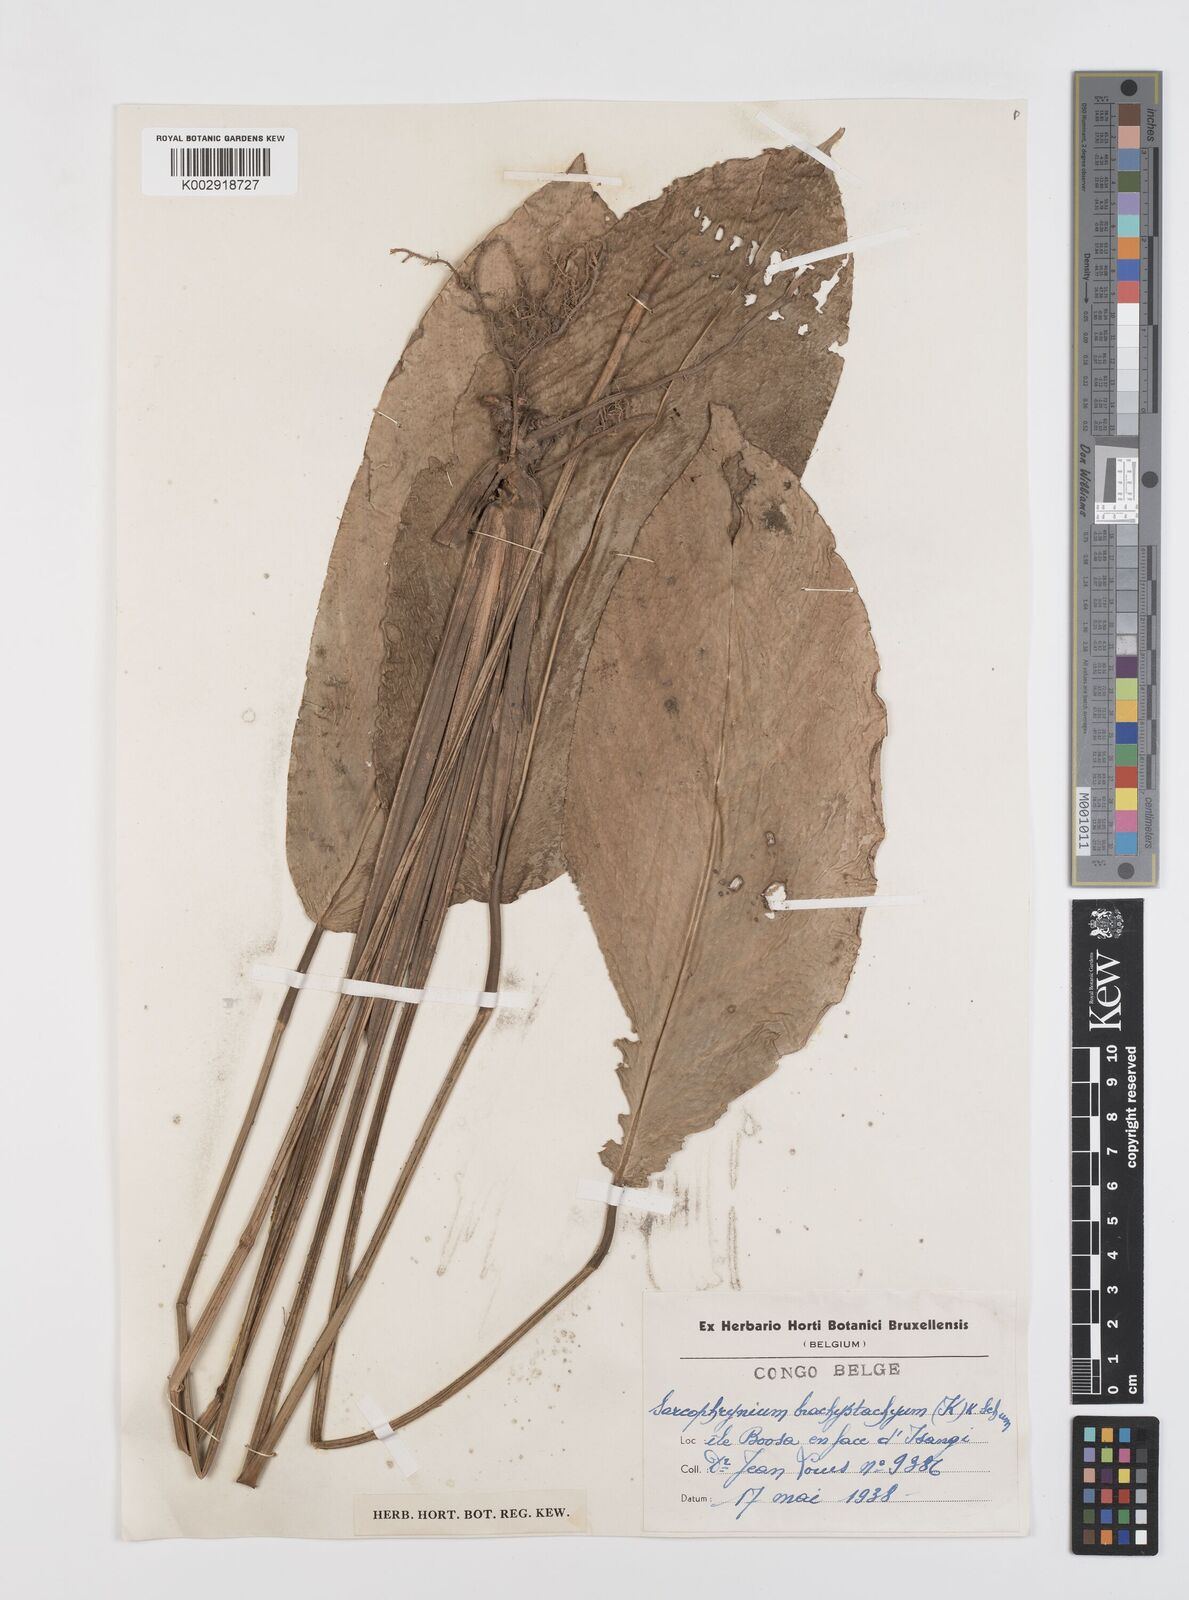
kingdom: Plantae
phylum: Tracheophyta
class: Liliopsida
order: Zingiberales
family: Marantaceae
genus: Sarcophrynium
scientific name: Sarcophrynium brachystachyum
